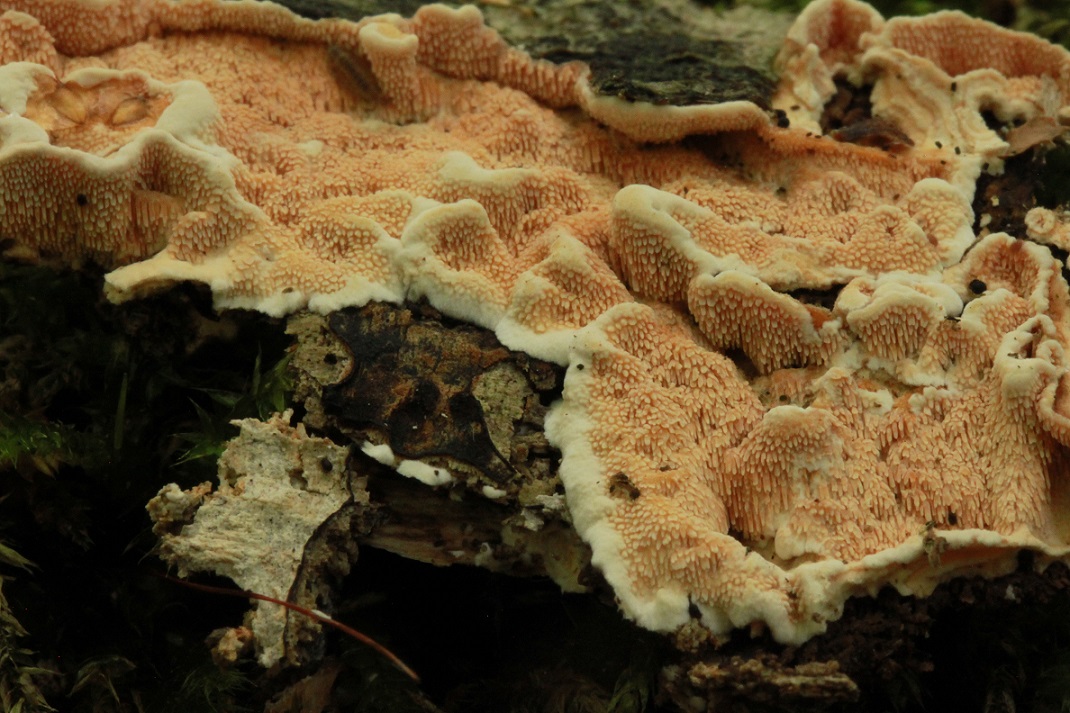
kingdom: Fungi
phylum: Basidiomycota
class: Agaricomycetes
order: Polyporales
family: Steccherinaceae
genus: Steccherinum
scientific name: Steccherinum ochraceum
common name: almindelig skønpig
